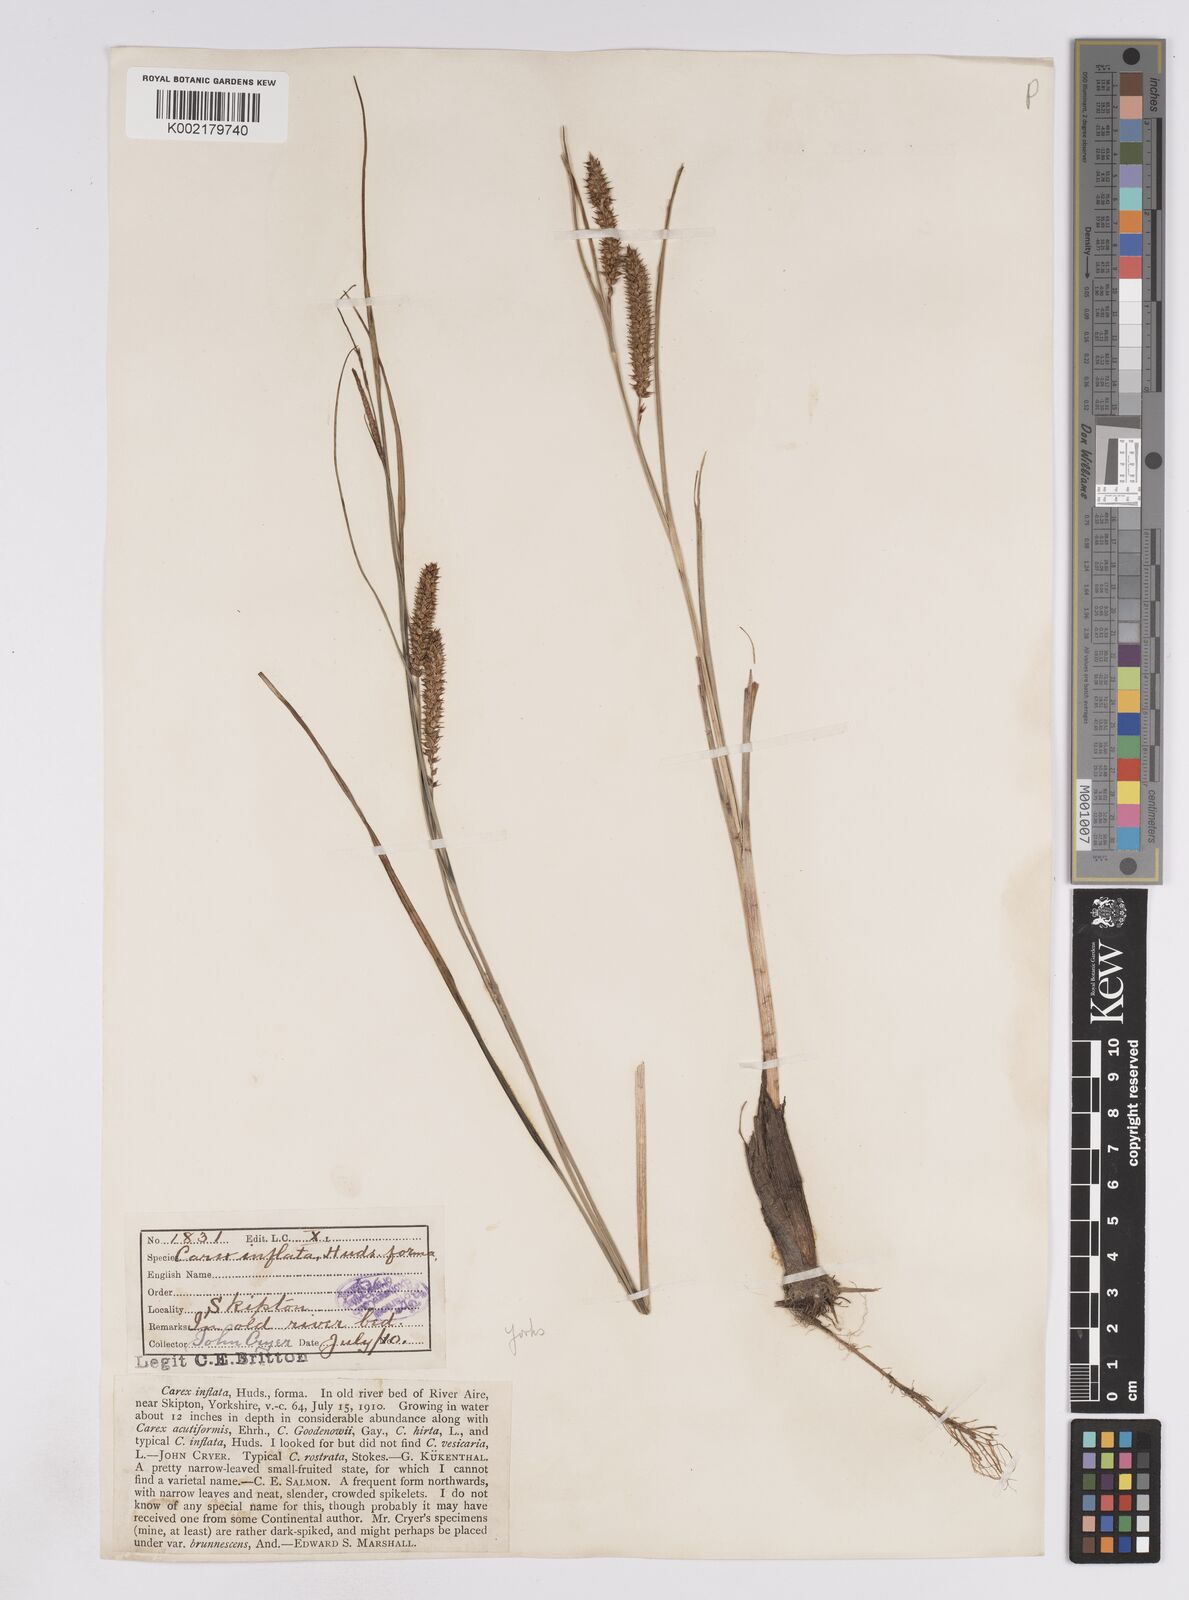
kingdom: Plantae
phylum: Tracheophyta
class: Liliopsida
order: Poales
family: Cyperaceae
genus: Carex
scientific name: Carex rostrata
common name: Bottle sedge
